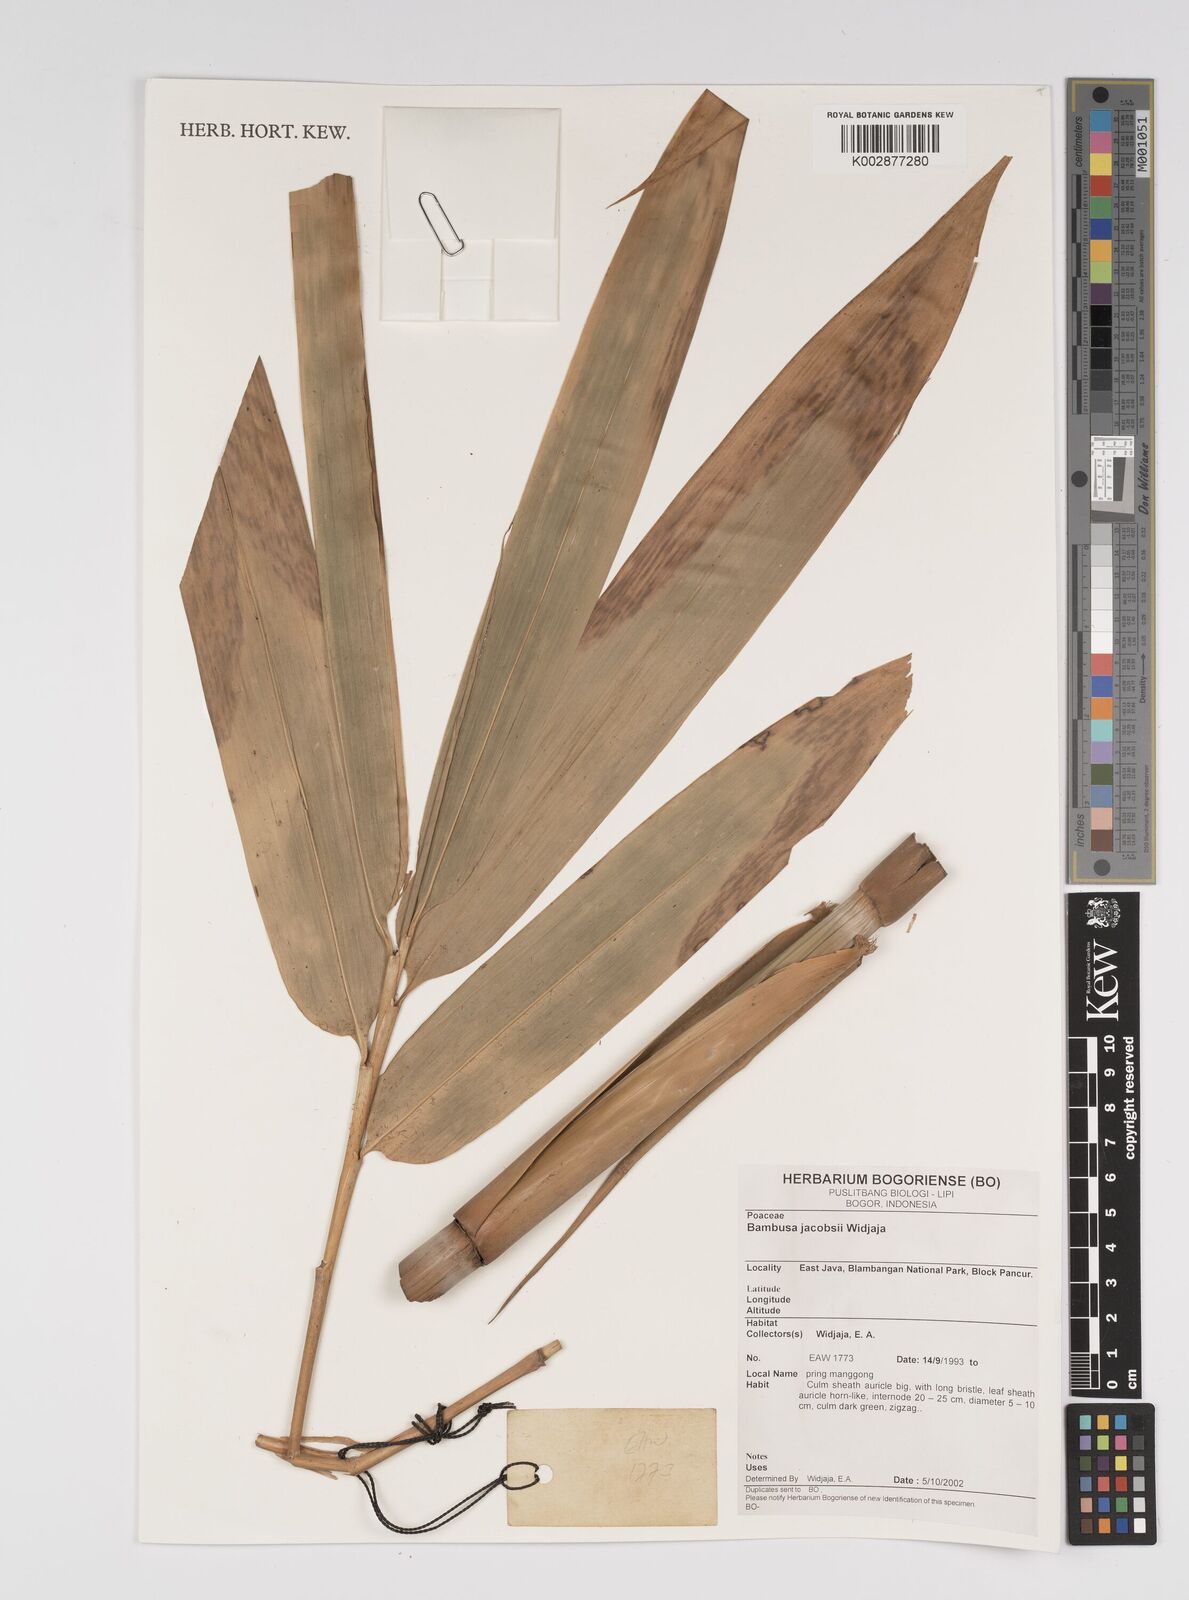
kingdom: Plantae
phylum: Tracheophyta
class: Liliopsida
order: Poales
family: Poaceae
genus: Bambusa
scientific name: Bambusa jacobsii
